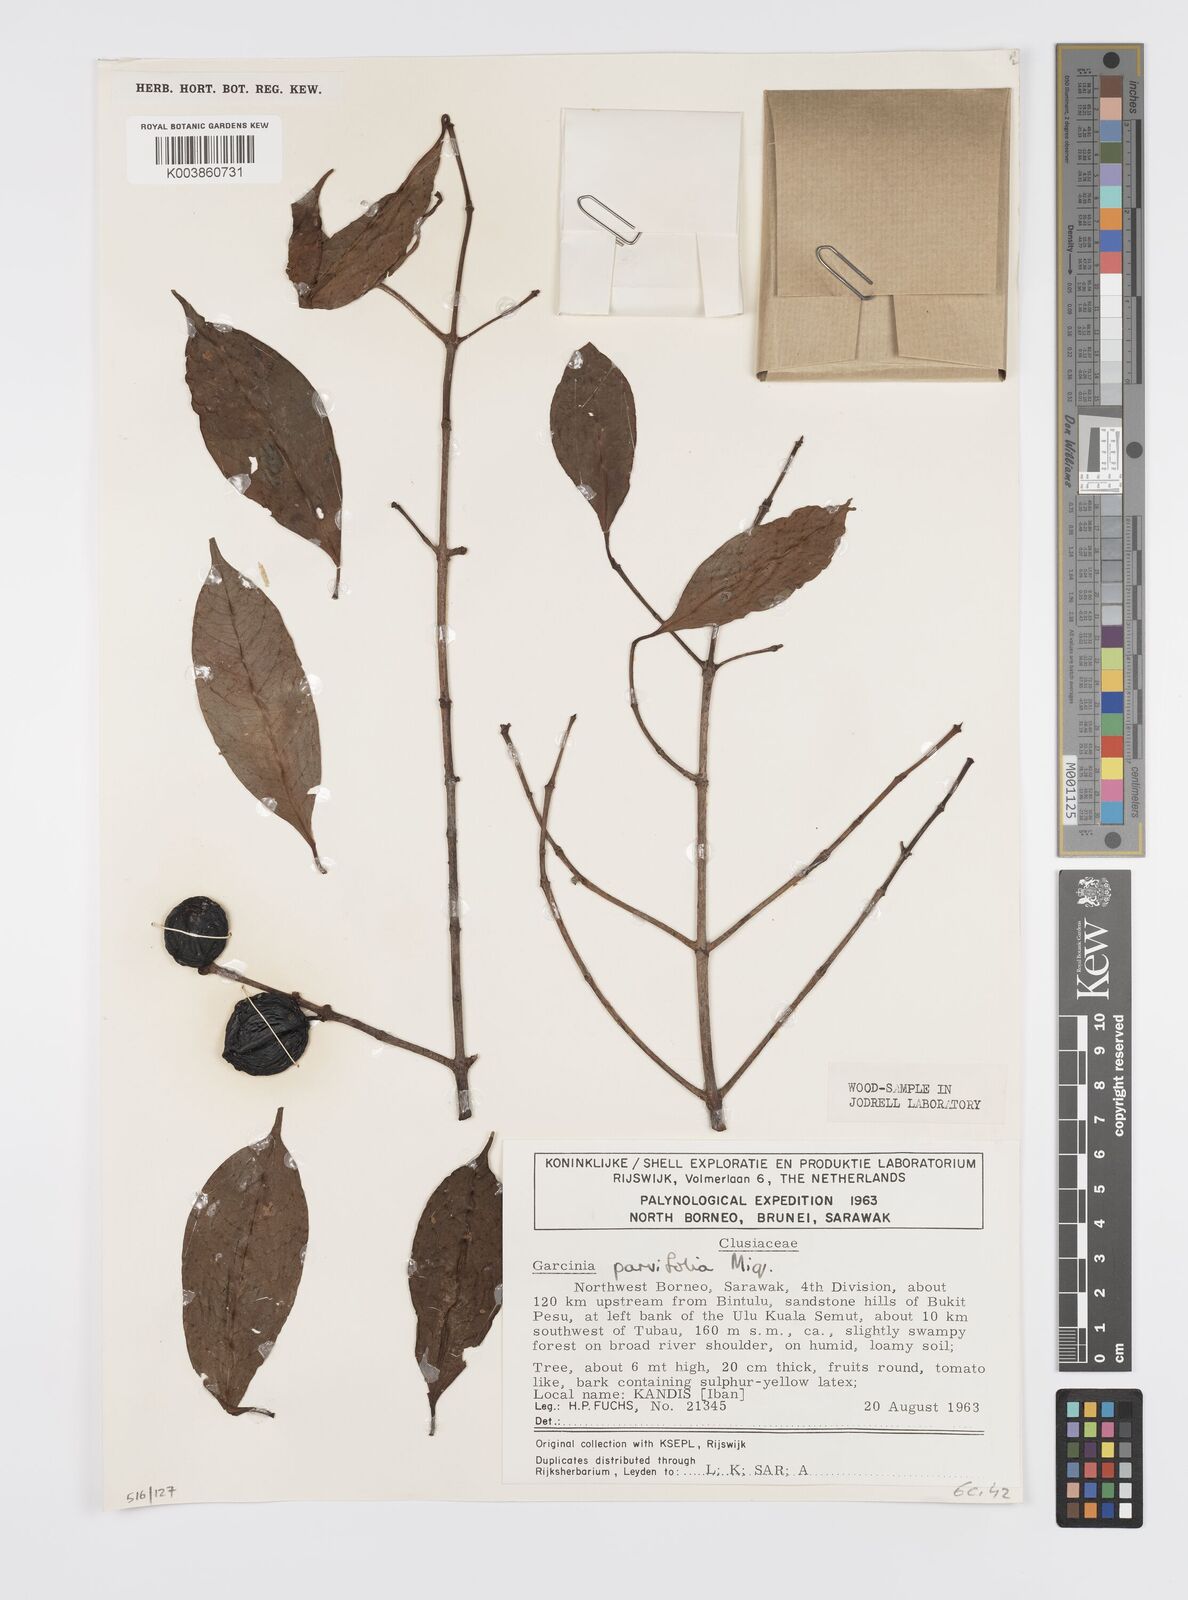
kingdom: Plantae
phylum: Tracheophyta
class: Magnoliopsida
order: Malpighiales
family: Clusiaceae
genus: Garcinia
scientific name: Garcinia parvifolia
